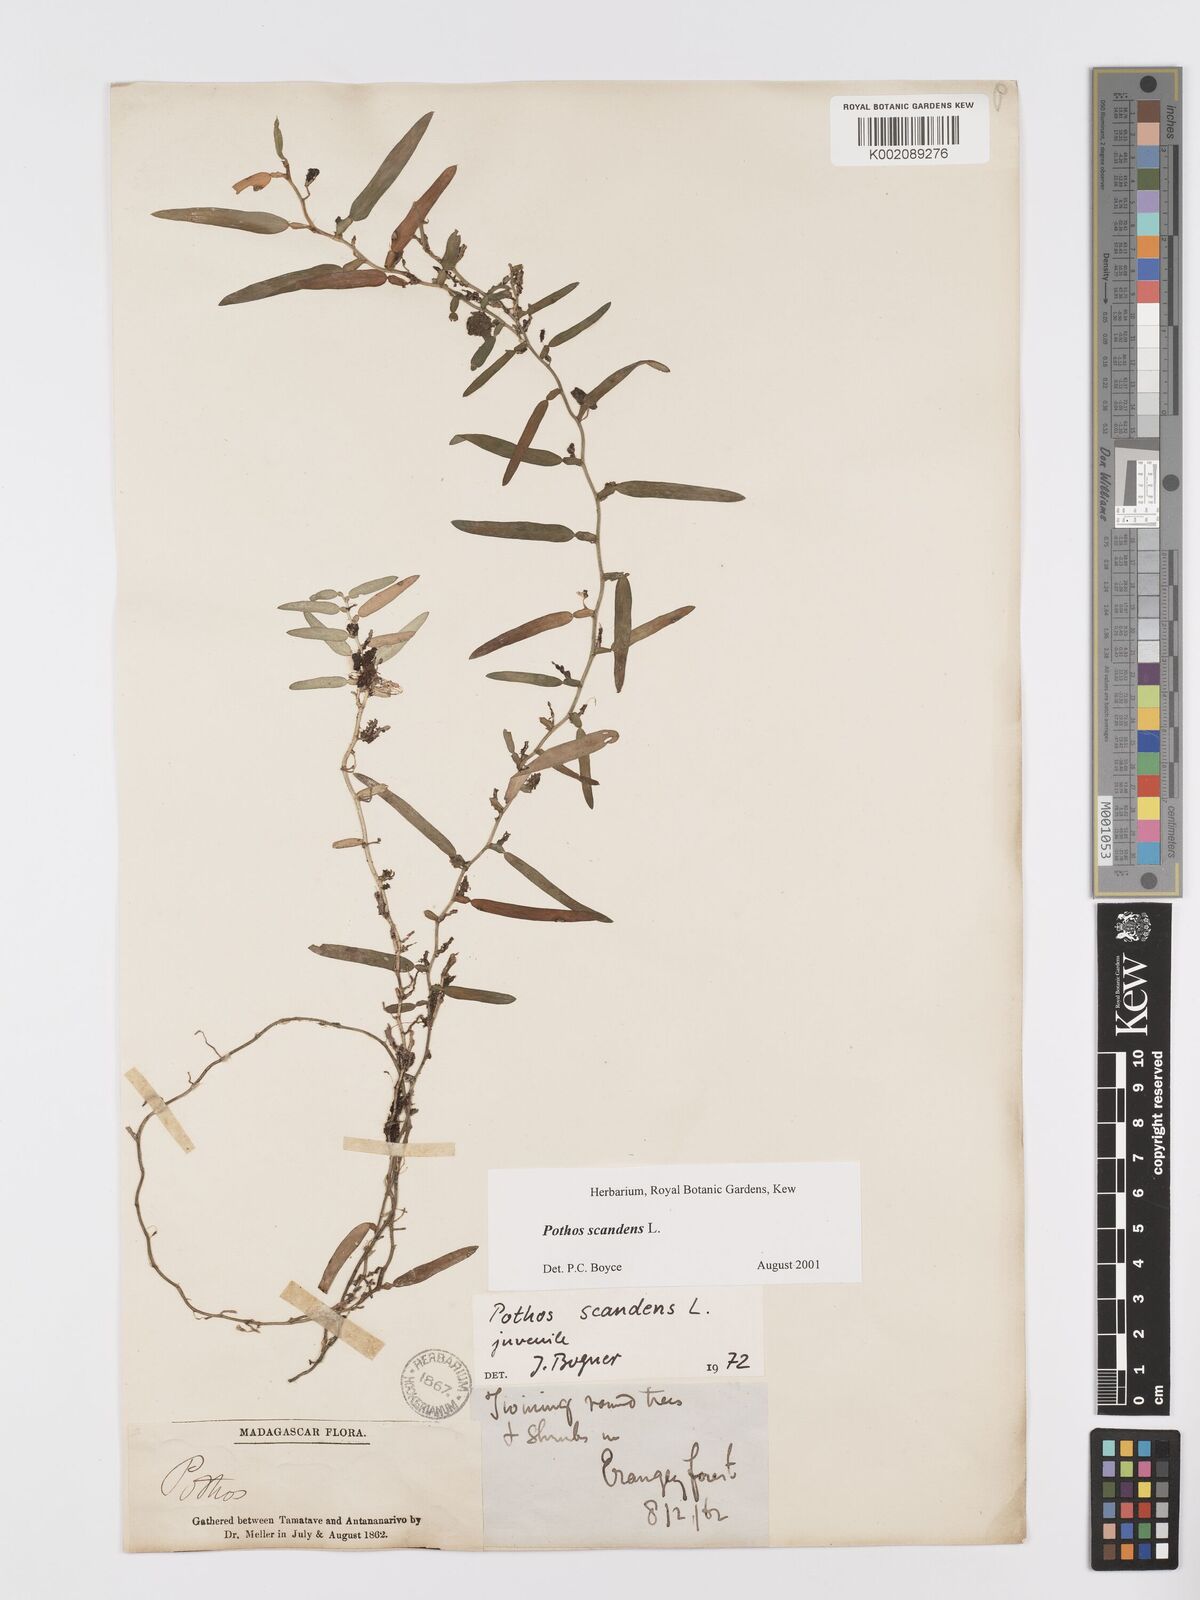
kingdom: Plantae
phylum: Tracheophyta
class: Liliopsida
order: Alismatales
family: Araceae
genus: Pothos
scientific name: Pothos scandens
